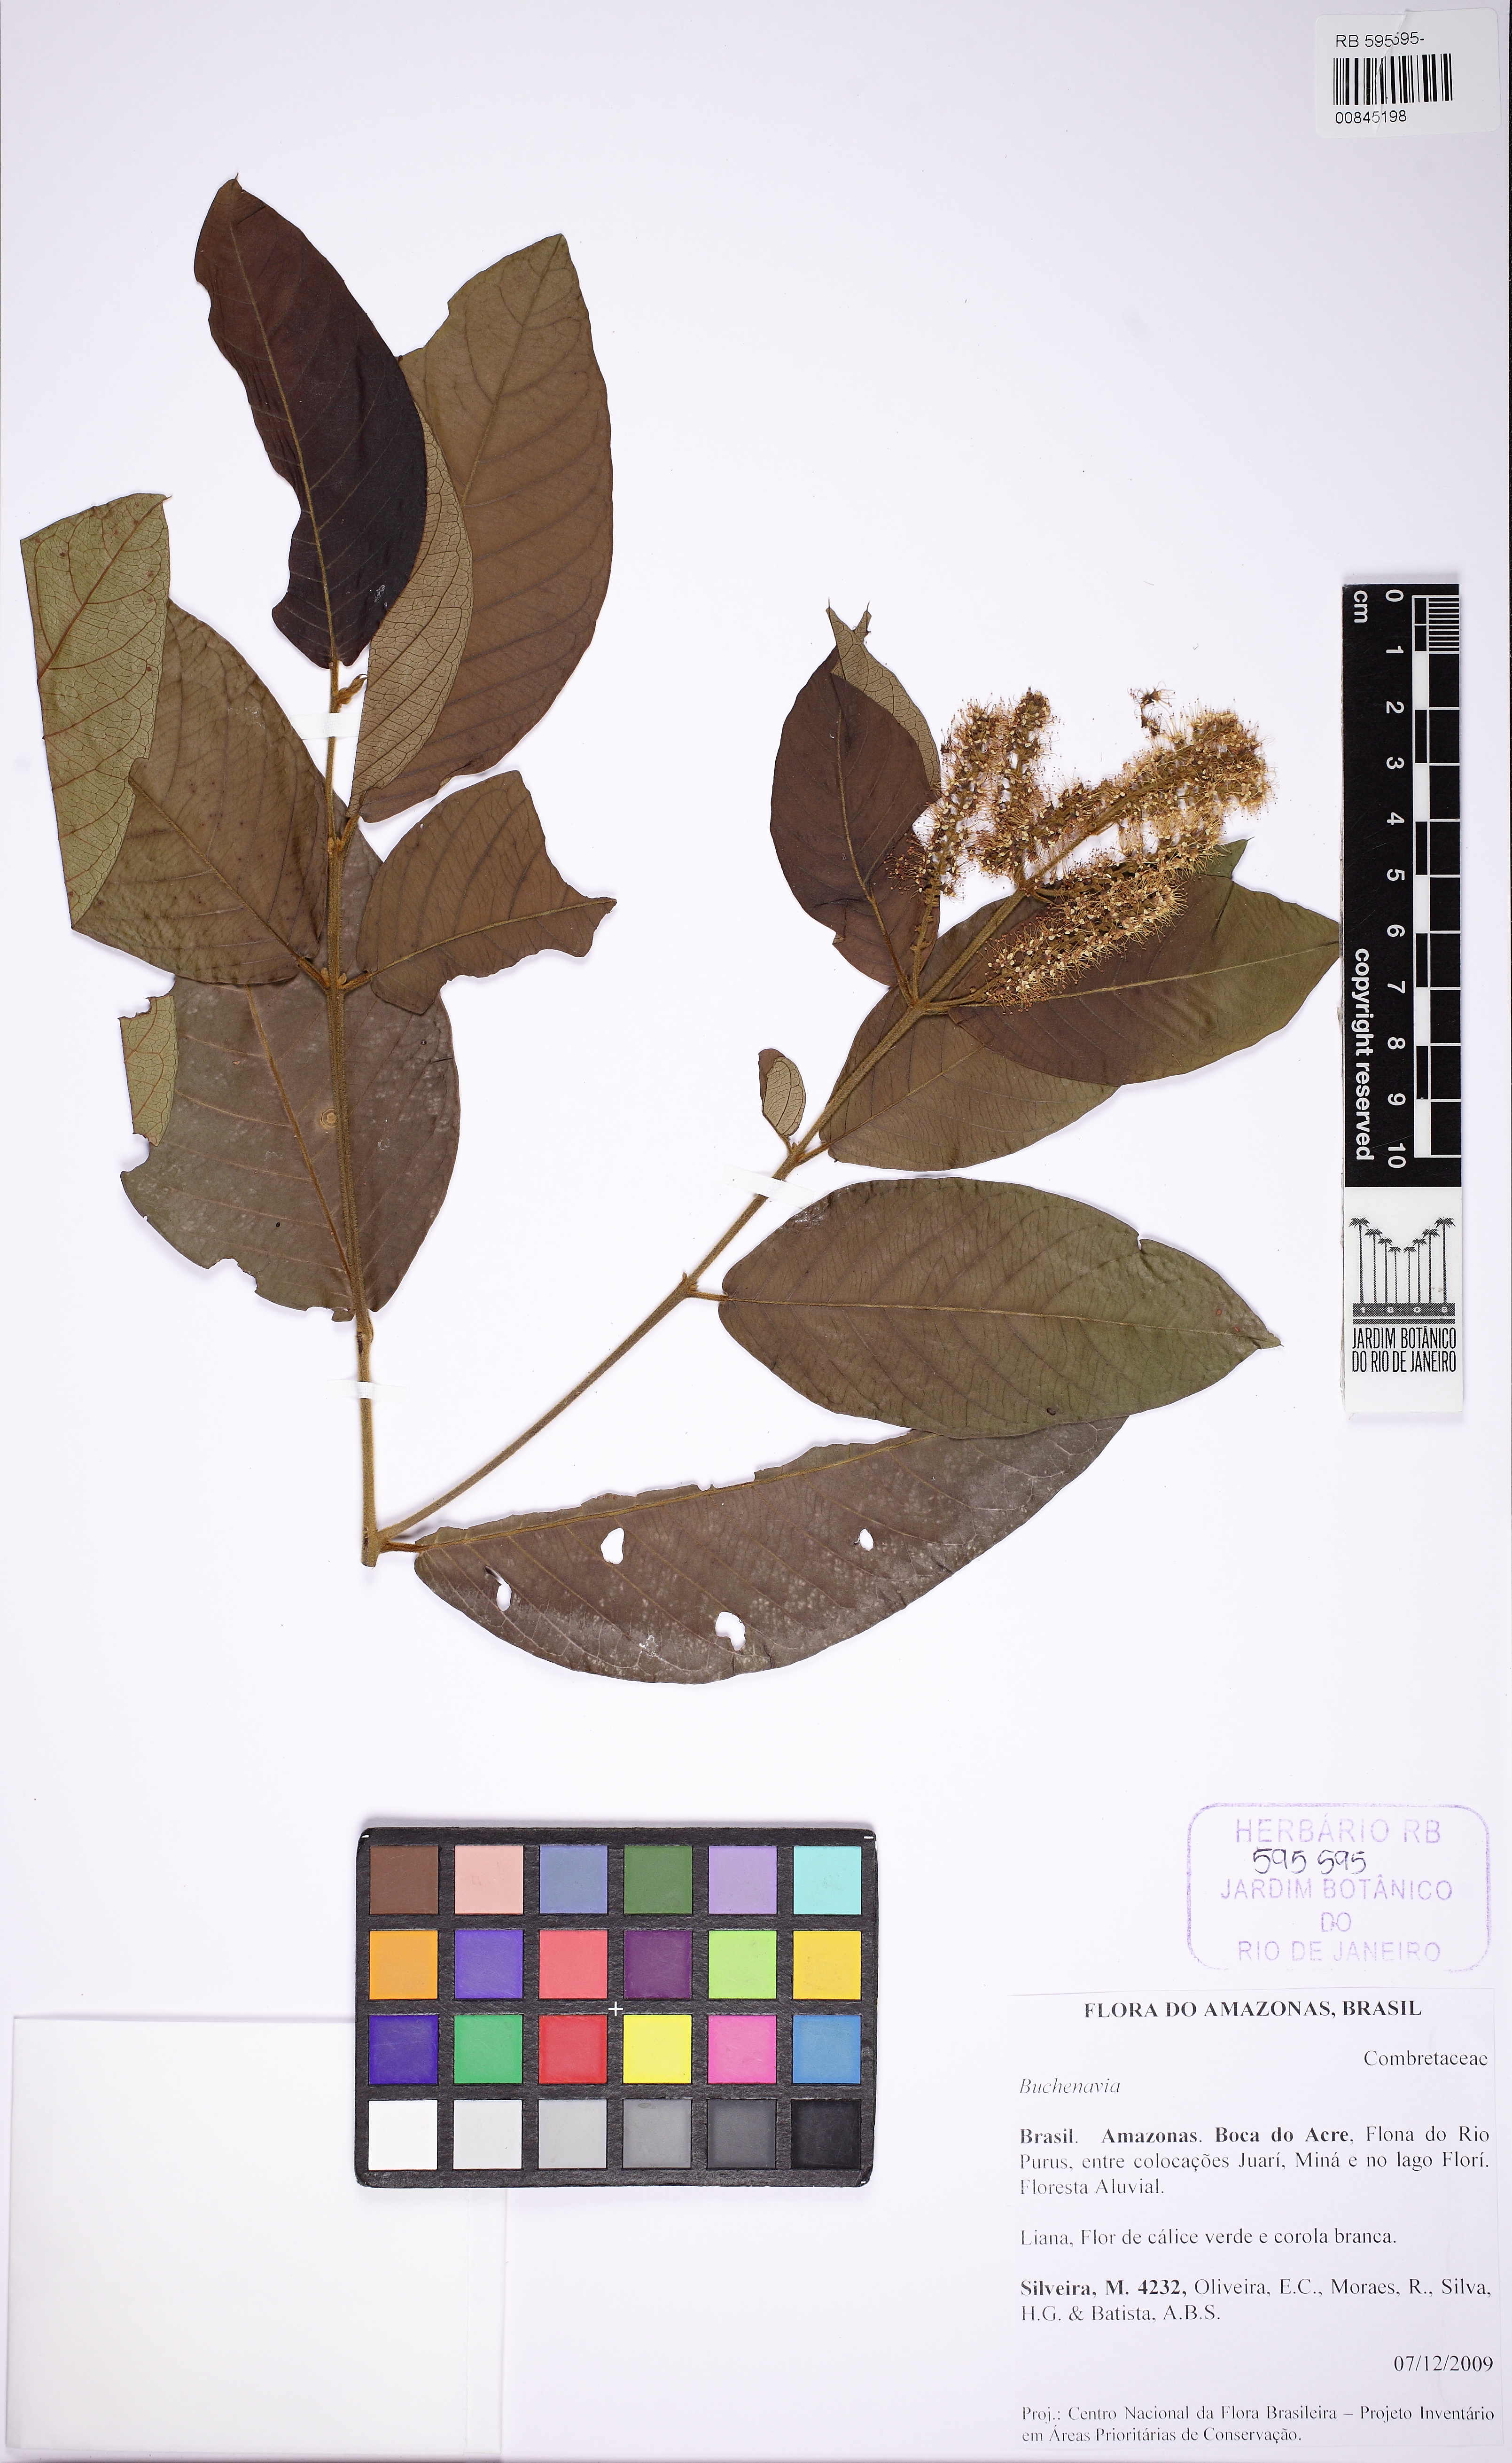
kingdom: Plantae
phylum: Tracheophyta
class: Magnoliopsida
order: Myrtales
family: Combretaceae
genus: Terminalia
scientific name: Terminalia
